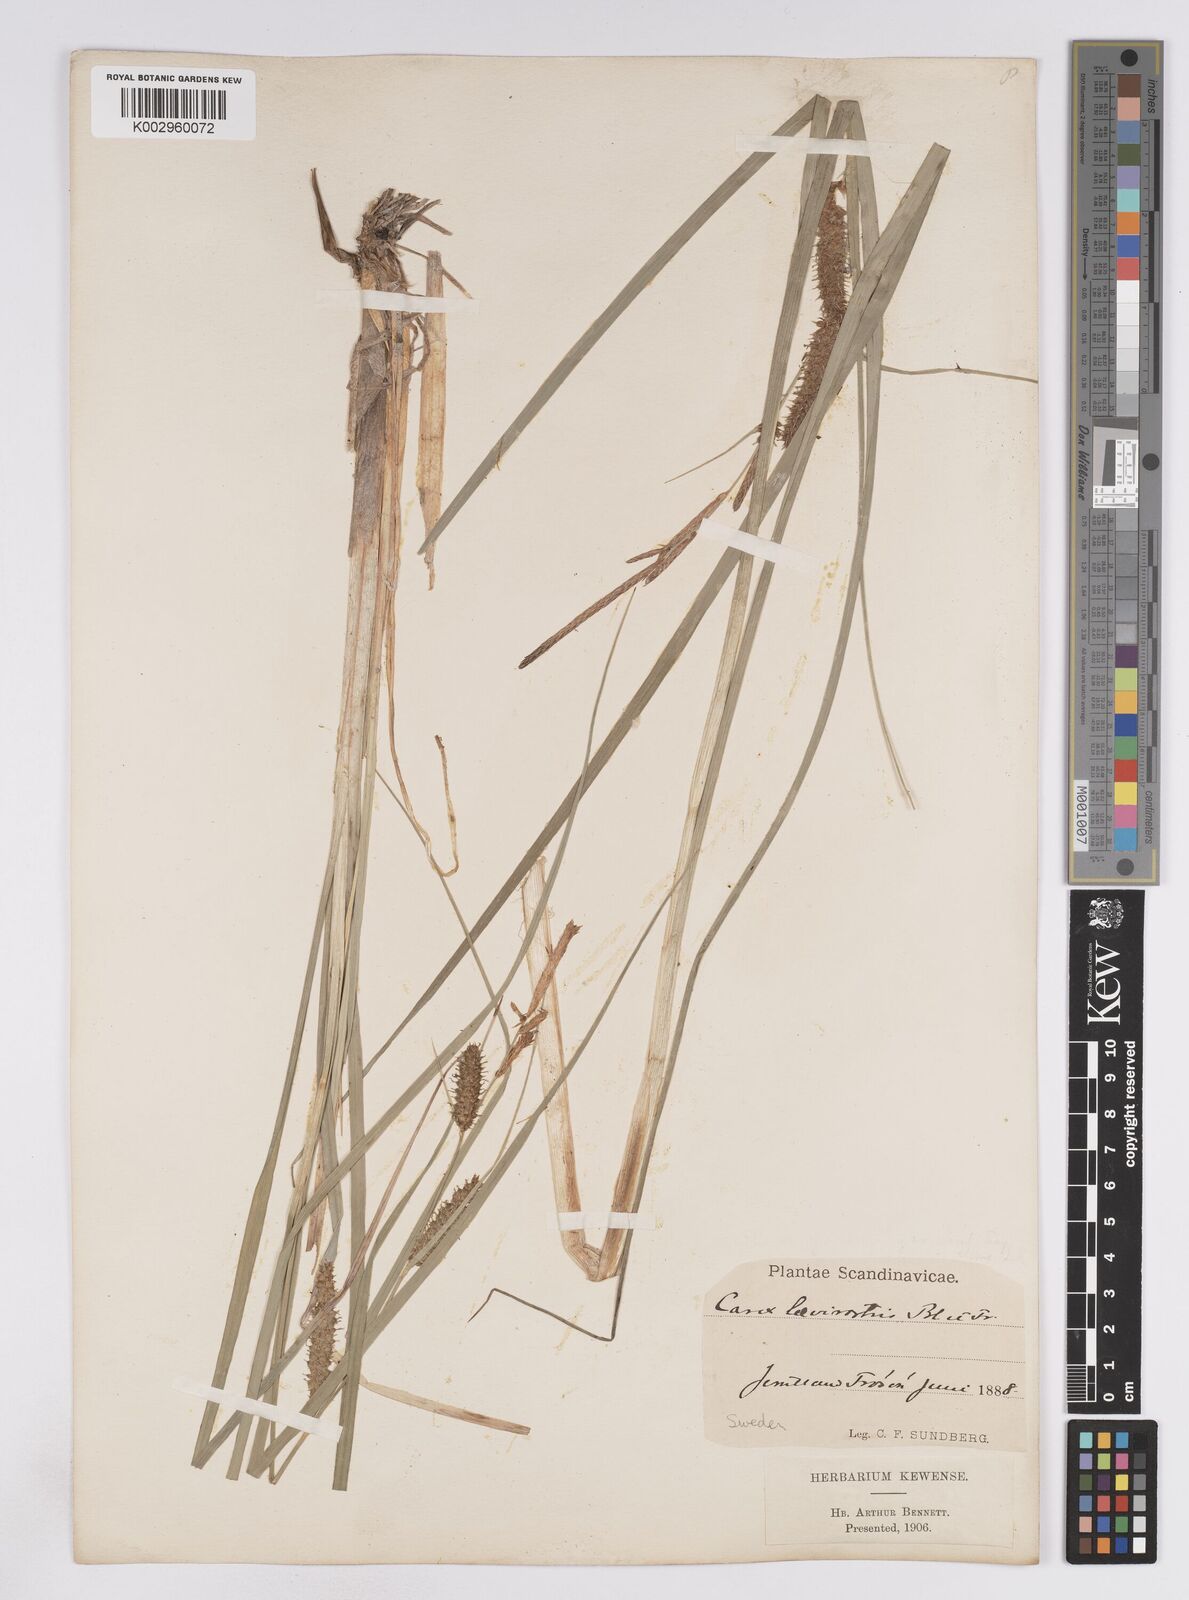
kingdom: Plantae
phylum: Tracheophyta
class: Liliopsida
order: Poales
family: Cyperaceae
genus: Carex
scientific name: Carex utriculata
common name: Beaked sedge
